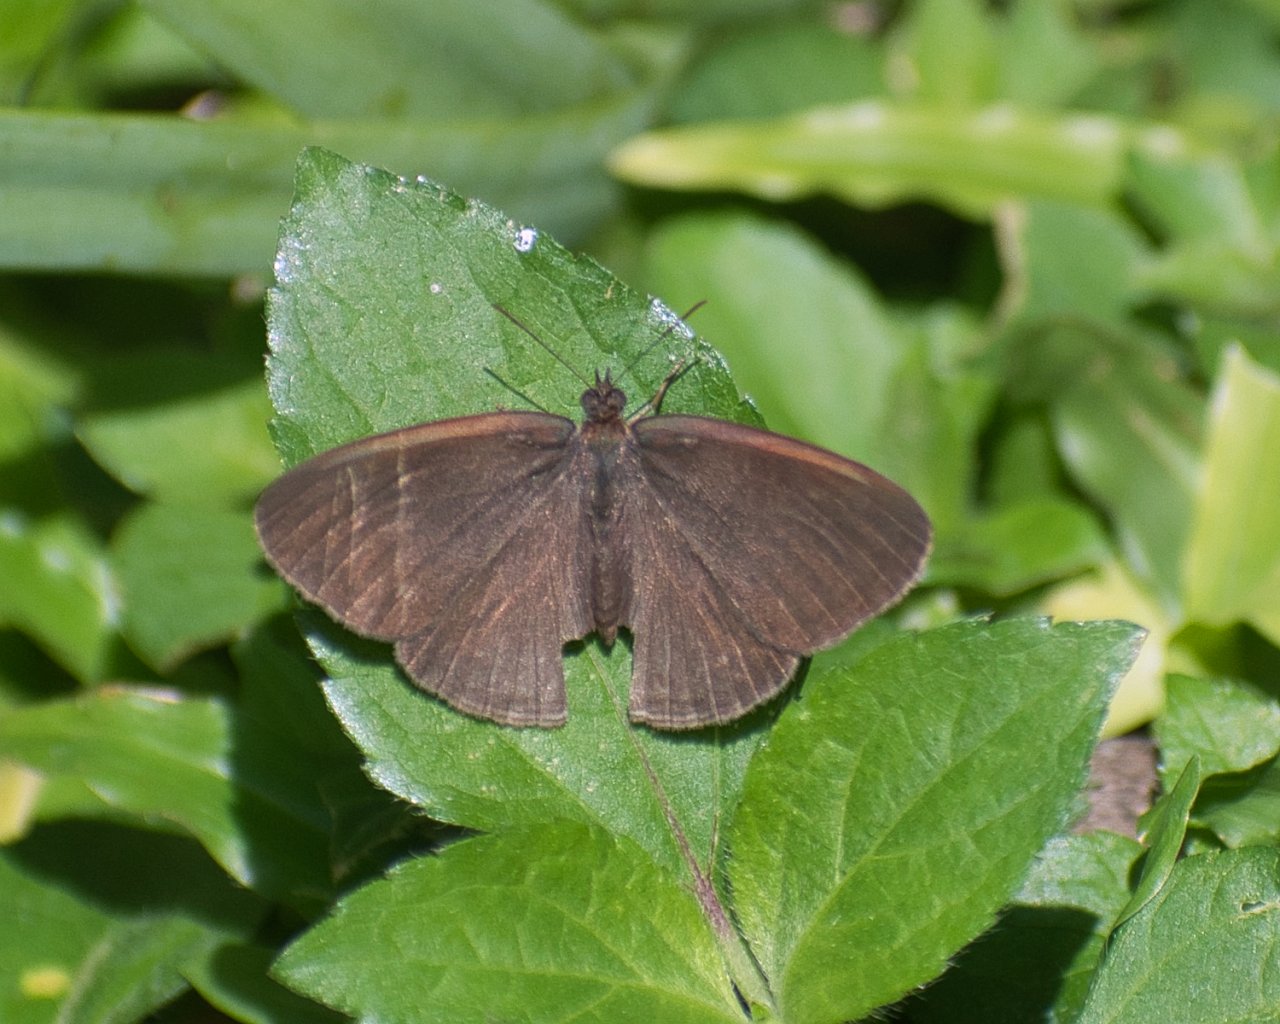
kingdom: Animalia
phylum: Arthropoda
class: Insecta
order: Lepidoptera
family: Nymphalidae
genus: Hermeuptychia
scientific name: Hermeuptychia hermes
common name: Hermes Satyr
